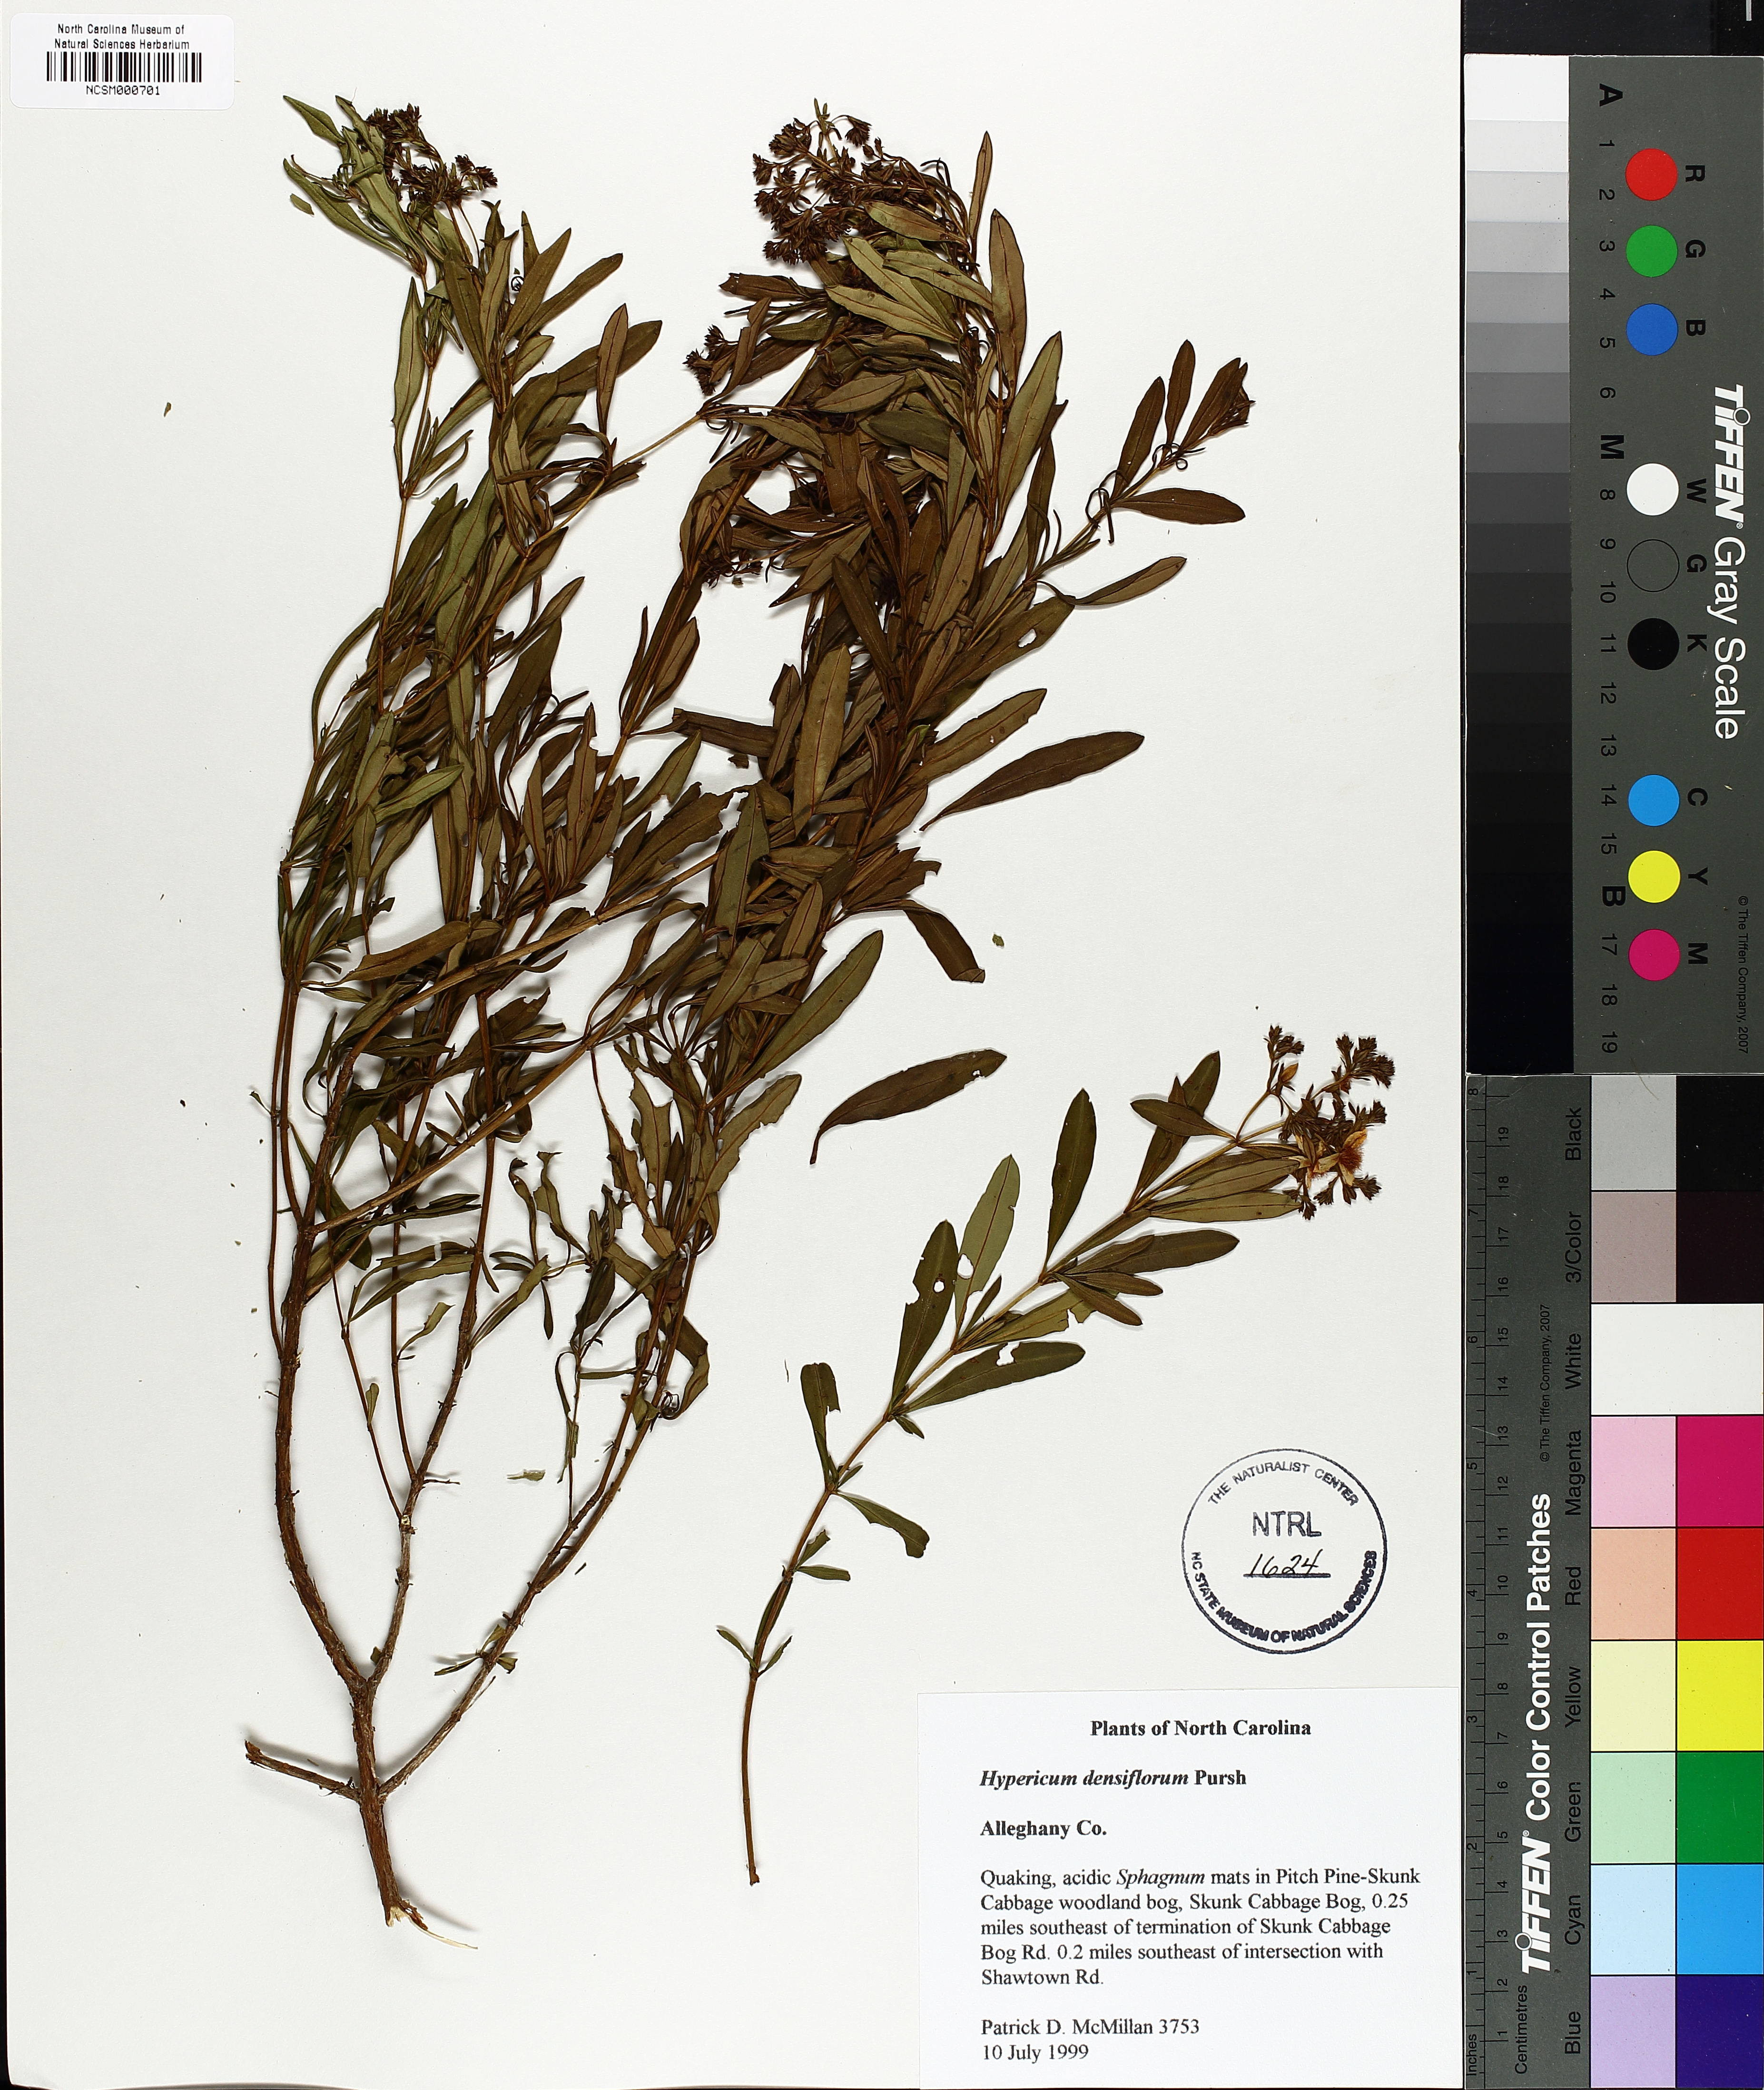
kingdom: Plantae
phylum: Tracheophyta
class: Magnoliopsida
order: Malpighiales
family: Hypericaceae
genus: Hypericum
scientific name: Hypericum densiflorum
